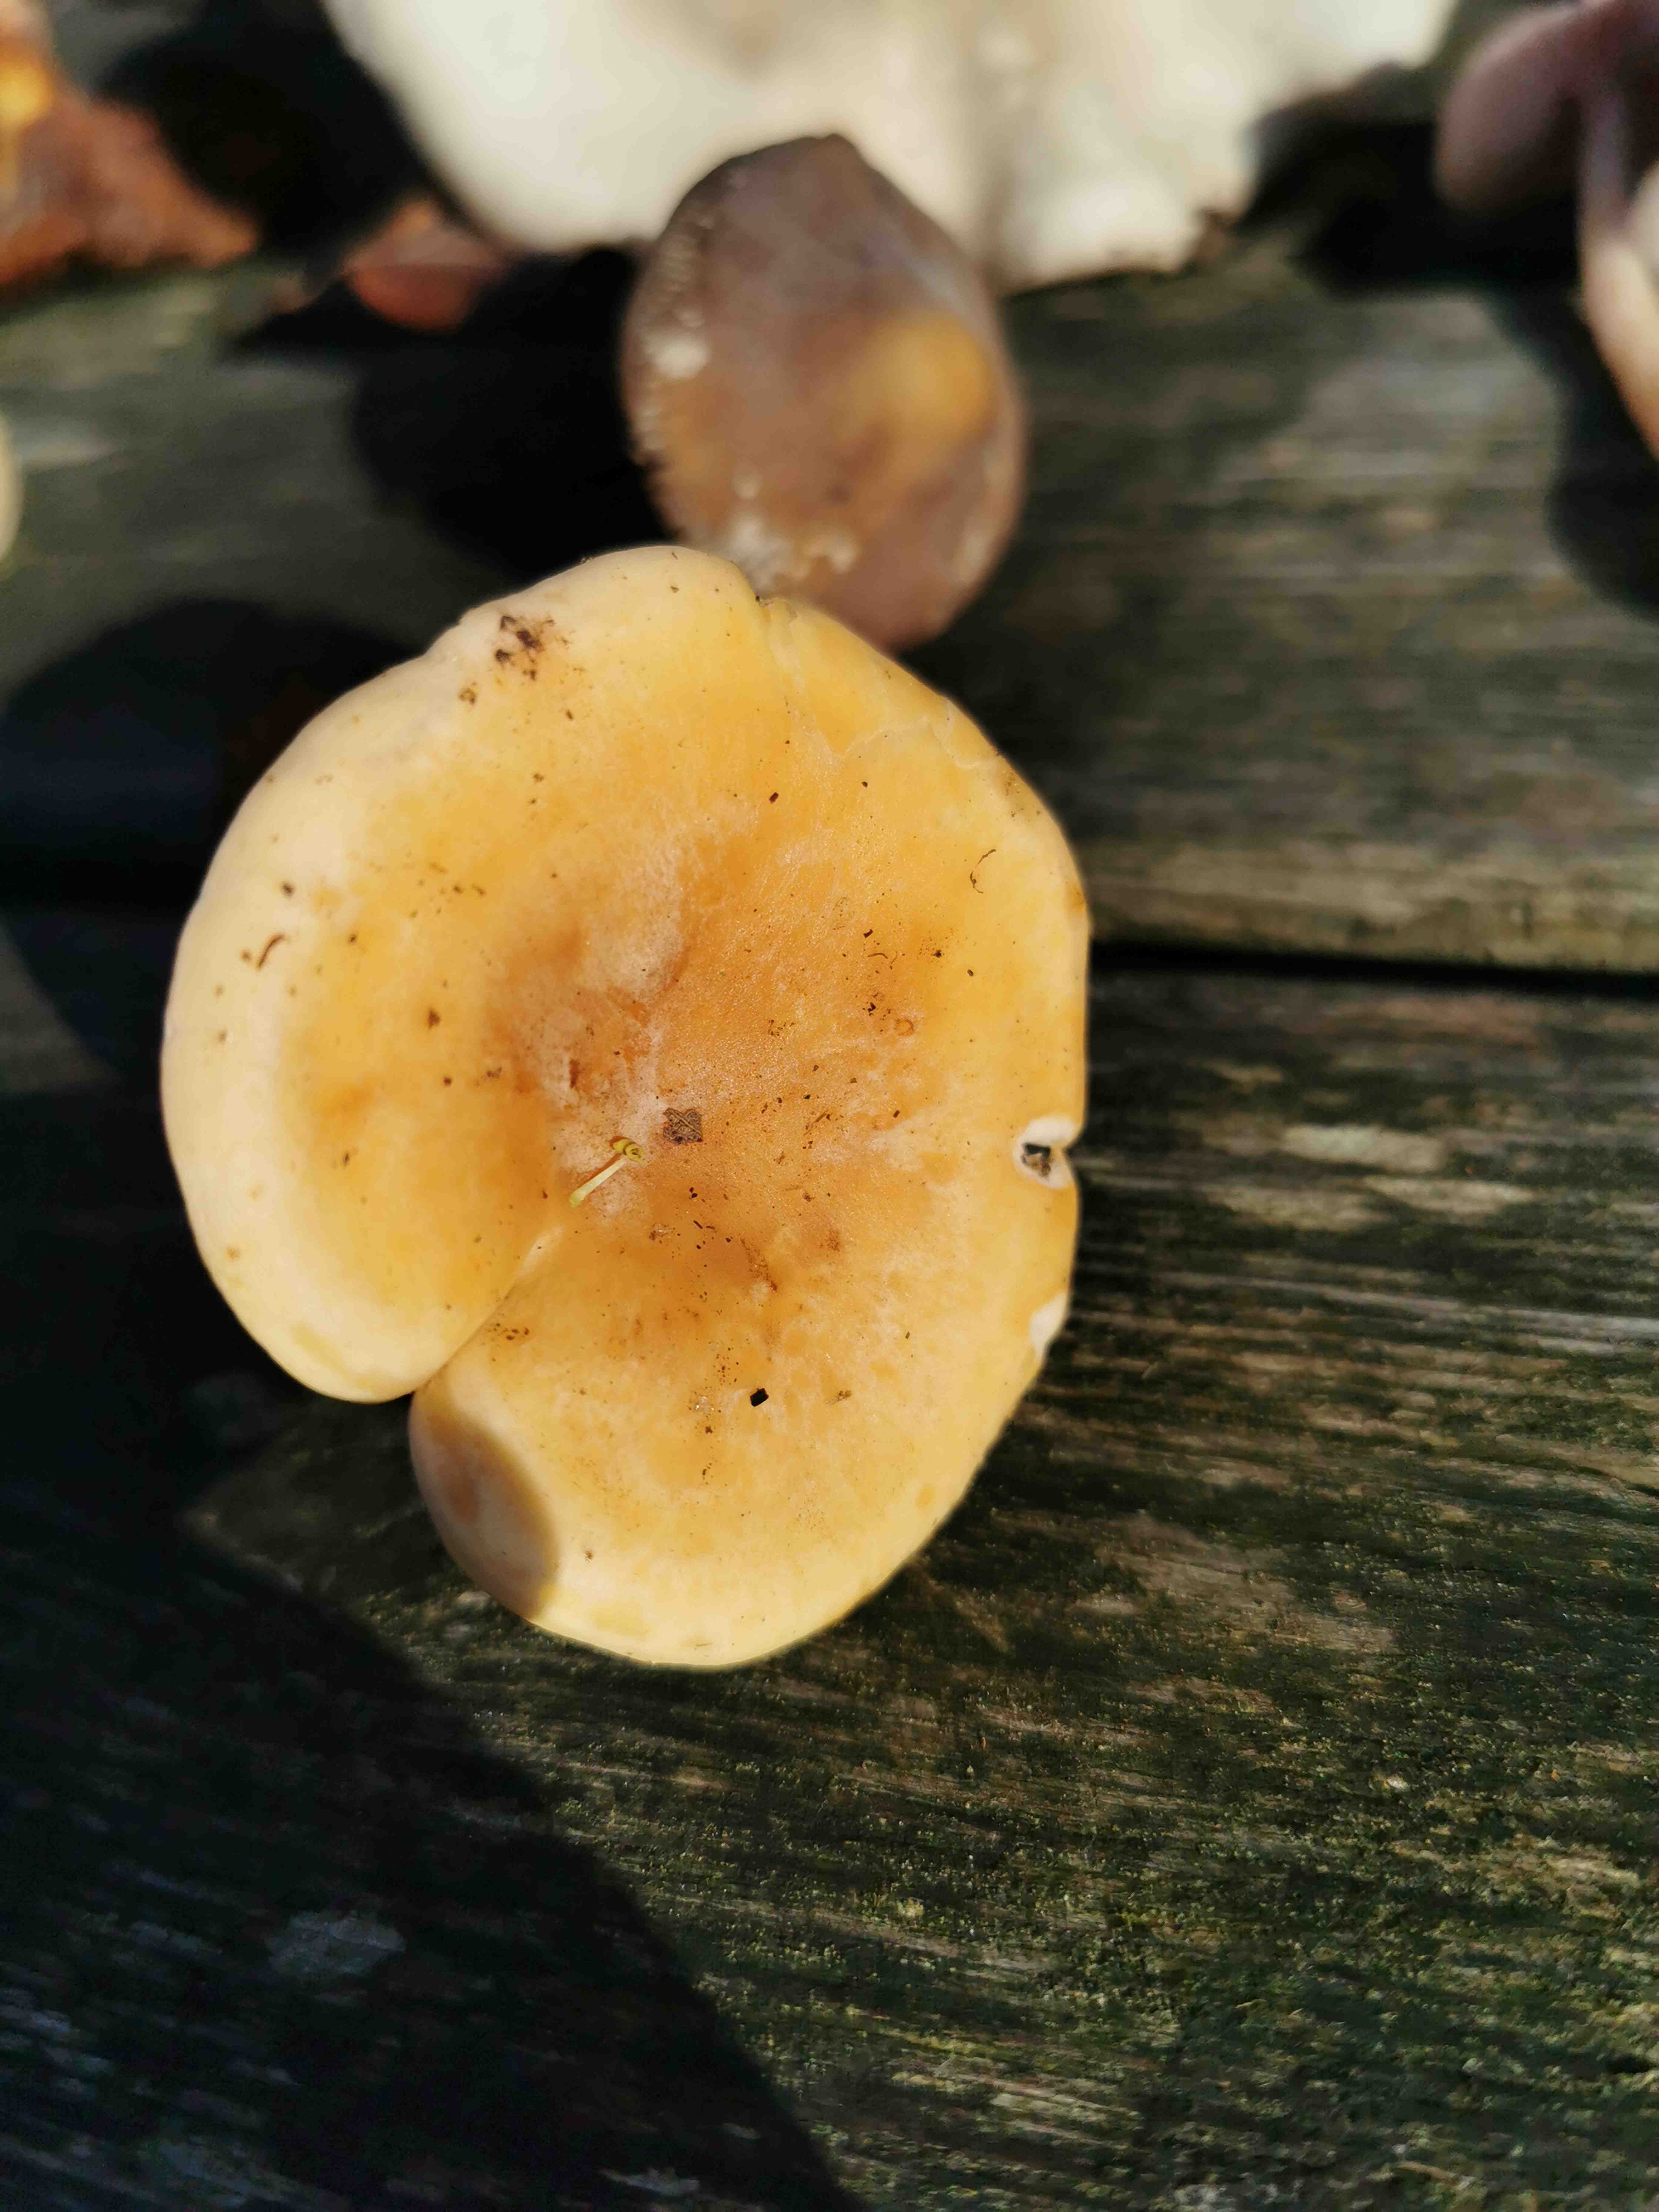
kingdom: Fungi
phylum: Basidiomycota
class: Agaricomycetes
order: Agaricales
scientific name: Agaricales
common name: champignonordenen
